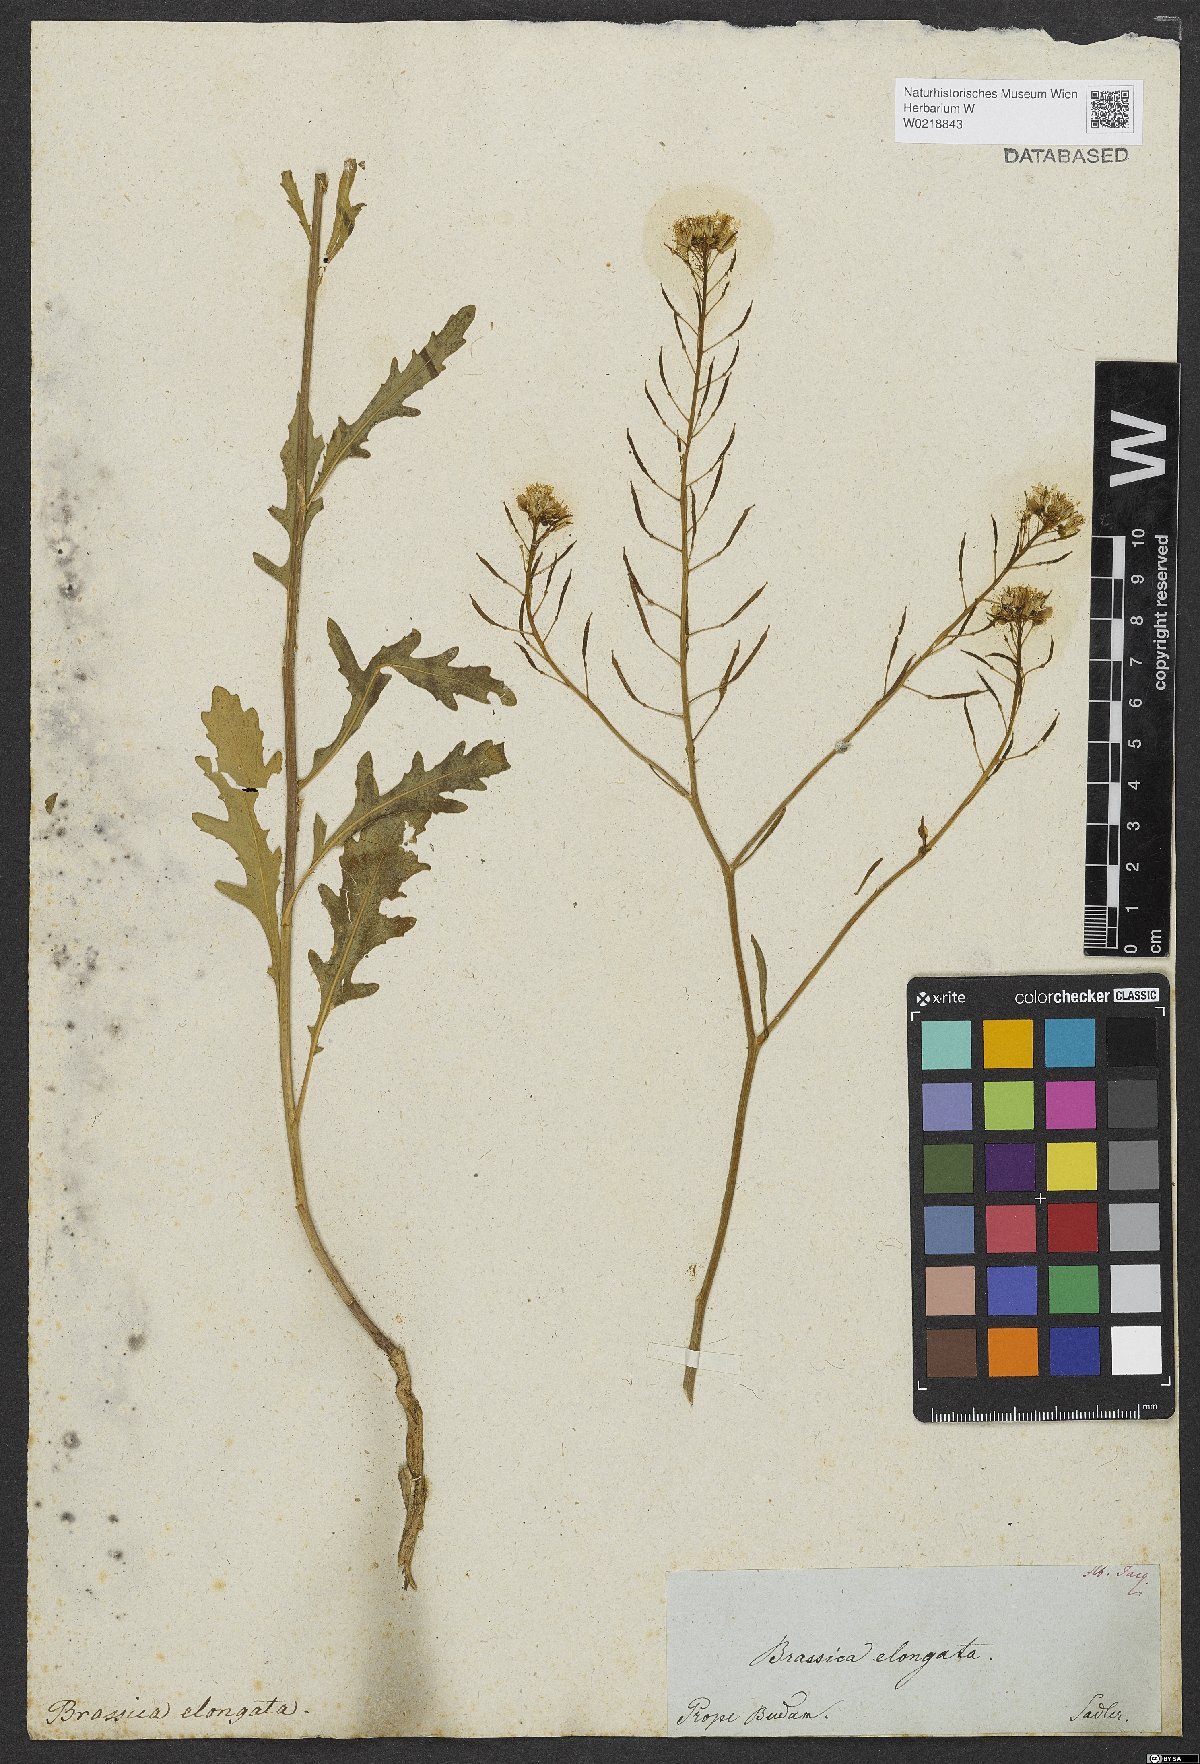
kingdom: Plantae
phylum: Tracheophyta
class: Magnoliopsida
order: Brassicales
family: Brassicaceae
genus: Brassica
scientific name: Brassica elongata
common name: Long-stalked rape
